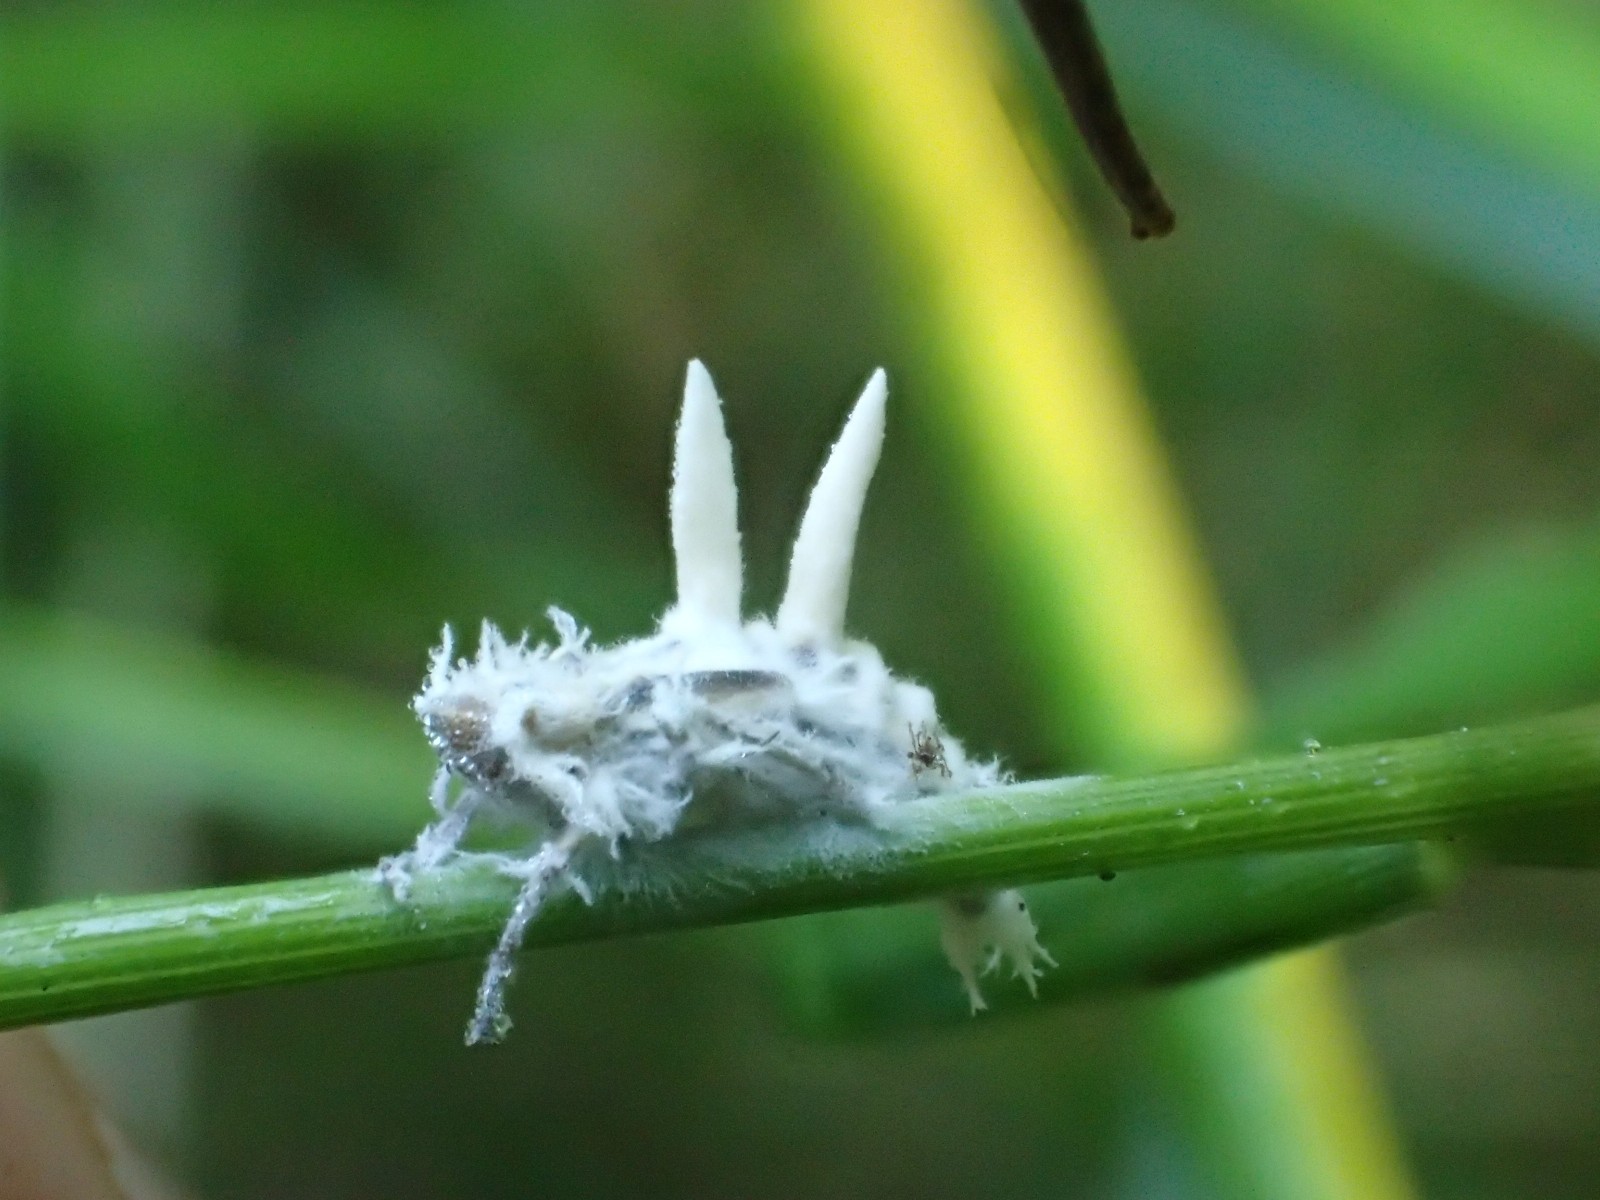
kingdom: Fungi
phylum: Ascomycota
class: Sordariomycetes
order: Hypocreales
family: Ophiocordycipitaceae
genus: Ophiocordyceps
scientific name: Ophiocordyceps
